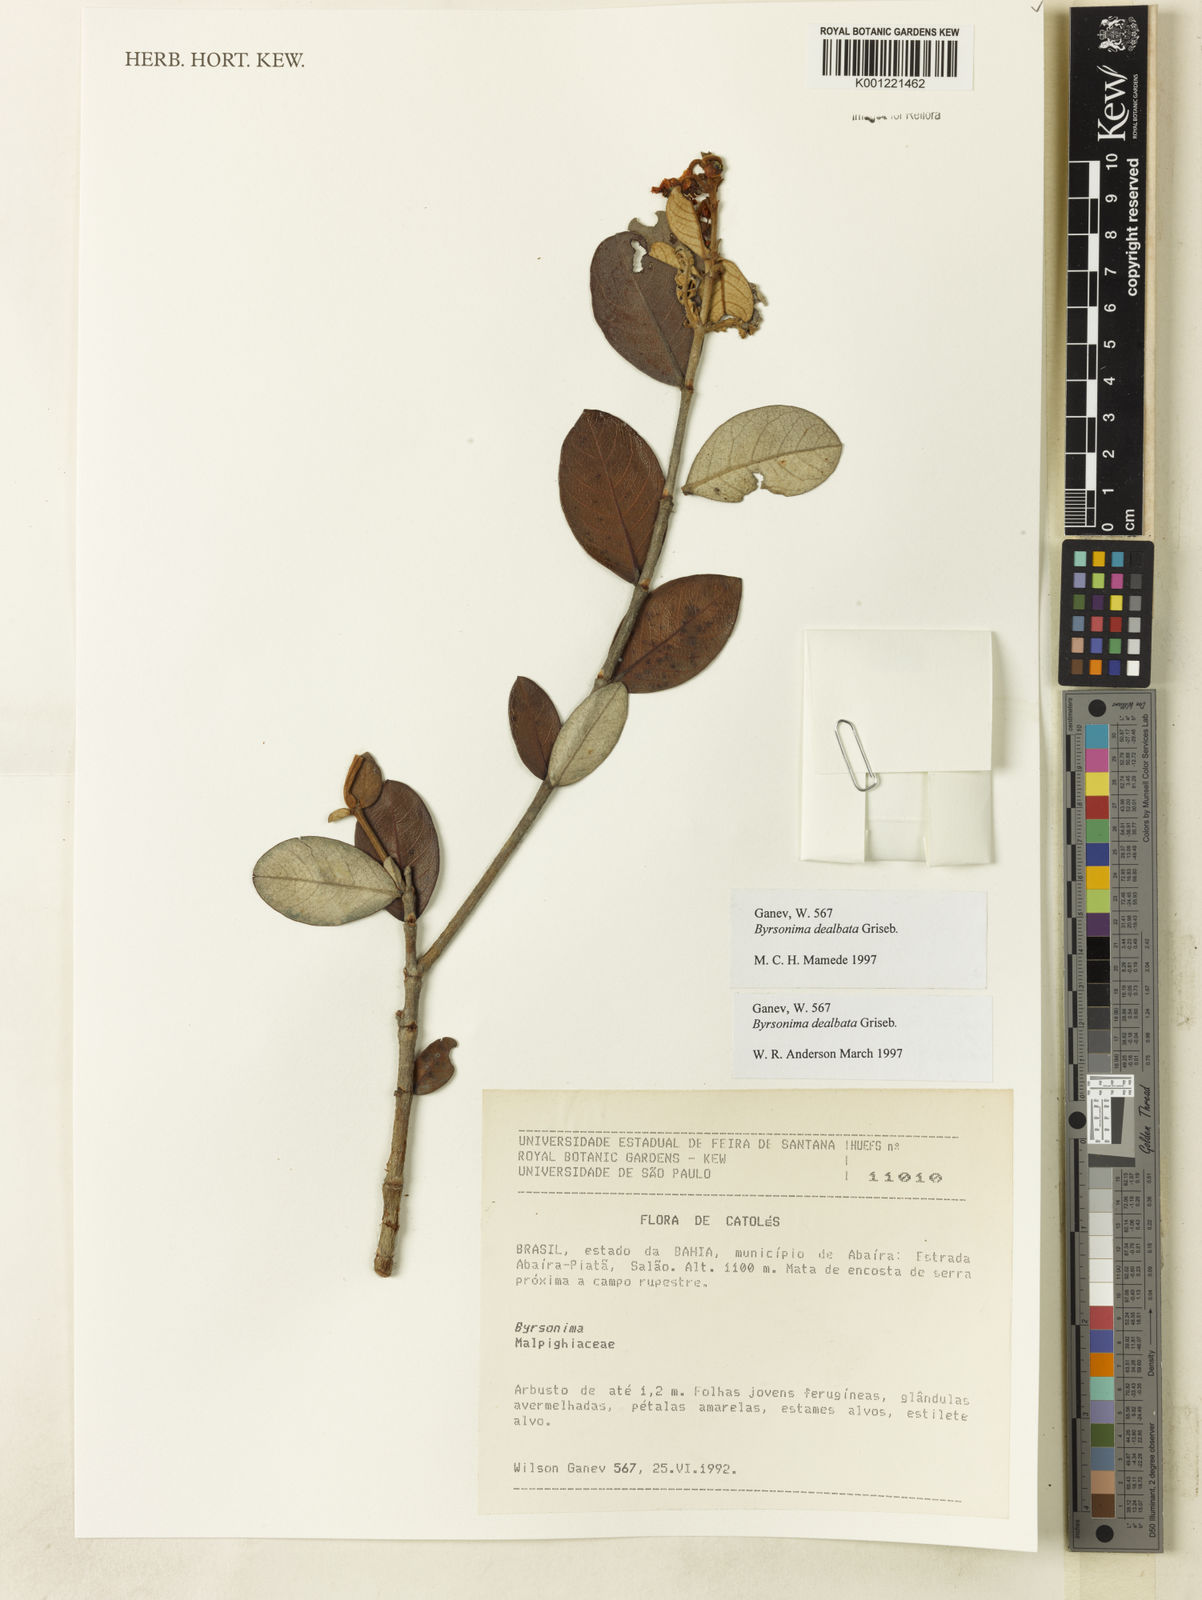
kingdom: Plantae
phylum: Tracheophyta
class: Magnoliopsida
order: Malpighiales
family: Malpighiaceae
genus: Byrsonima
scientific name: Byrsonima dealbata
